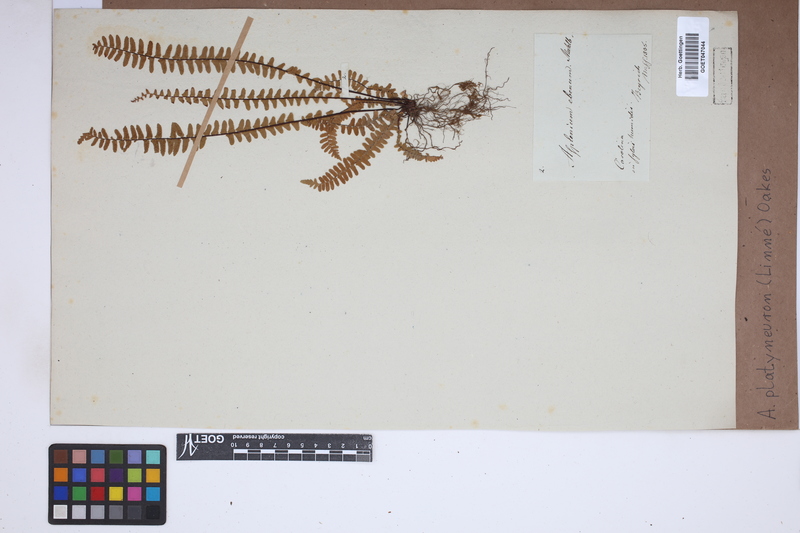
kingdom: Plantae
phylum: Tracheophyta
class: Polypodiopsida
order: Polypodiales
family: Aspleniaceae
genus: Asplenium
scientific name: Asplenium platyneuron
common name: Ebony spleenwort
